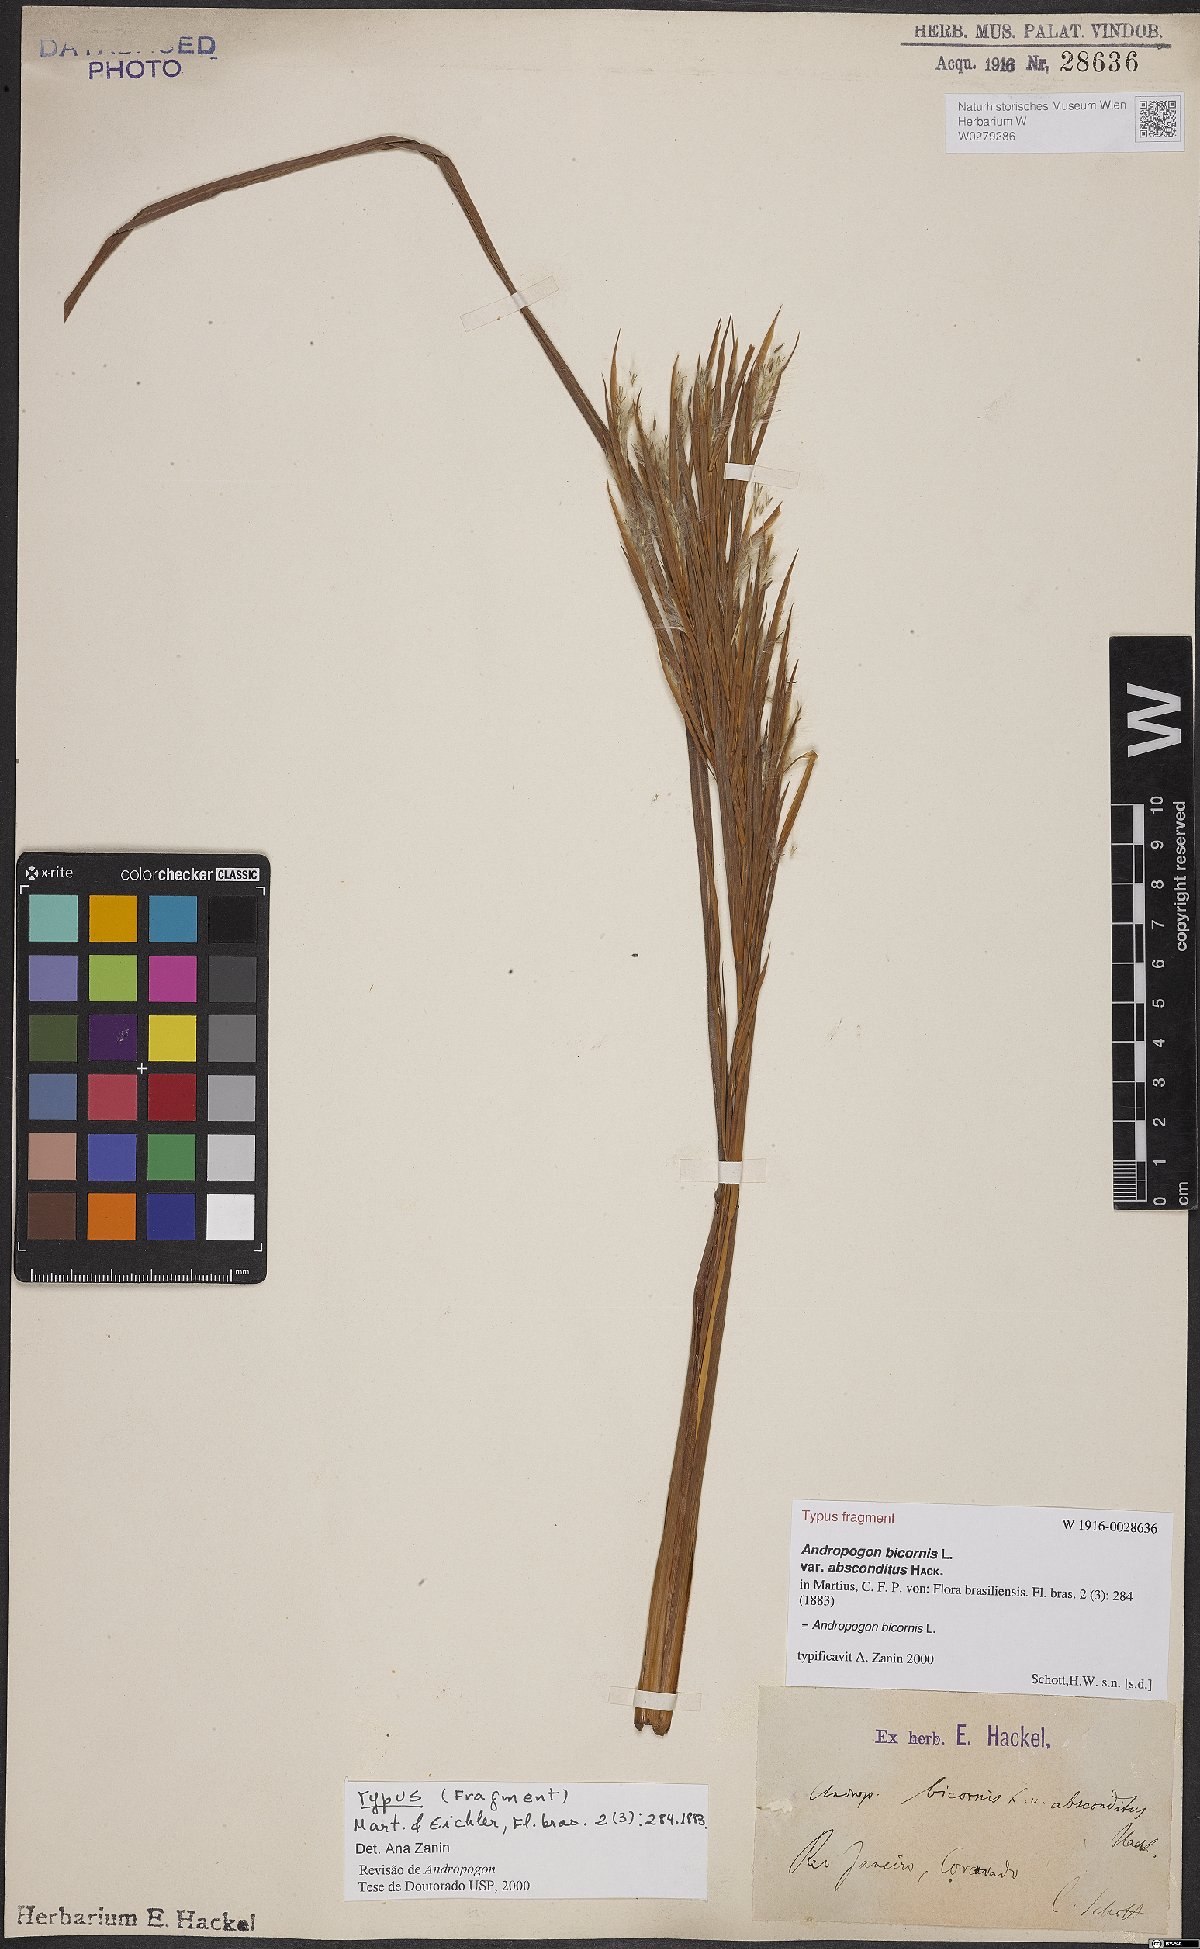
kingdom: Plantae
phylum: Tracheophyta
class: Liliopsida
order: Poales
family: Poaceae
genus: Andropogon
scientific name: Andropogon bicornis
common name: West indian foxtail grass
